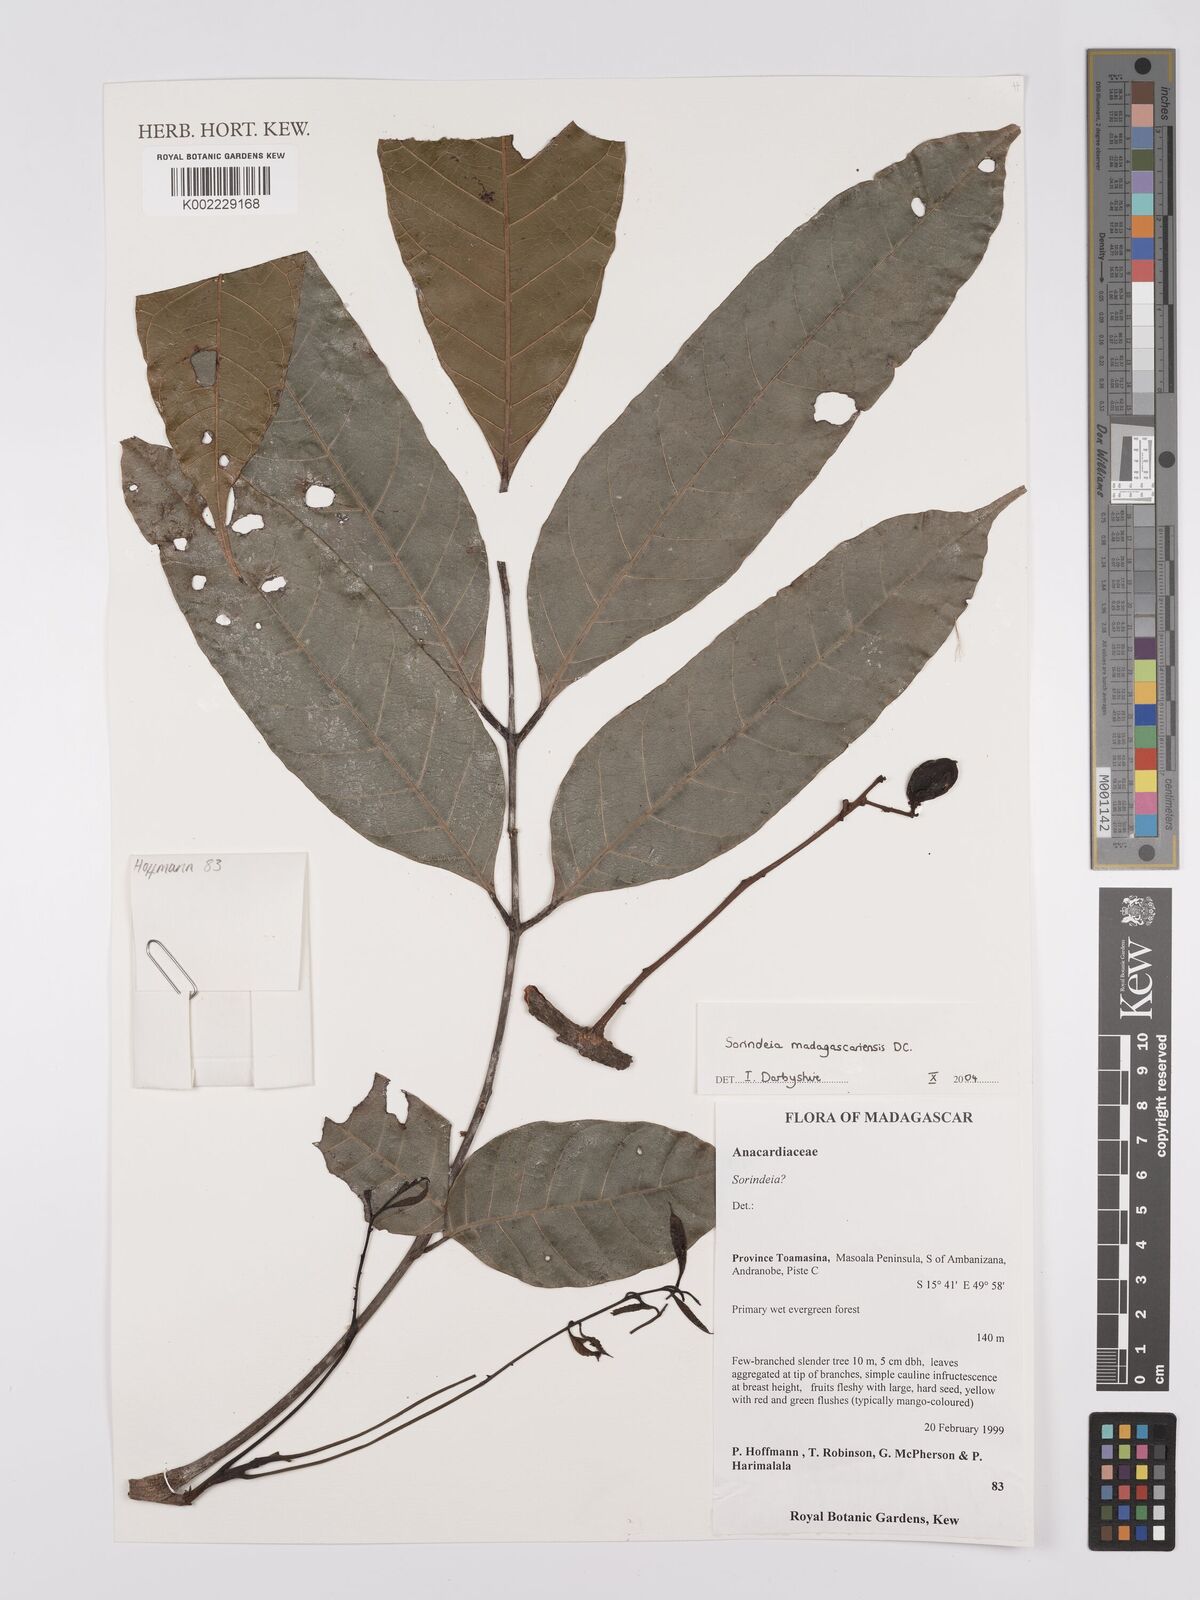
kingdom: Plantae
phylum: Tracheophyta
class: Magnoliopsida
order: Sapindales
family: Anacardiaceae
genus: Sorindeia
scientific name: Sorindeia madagascariensis
